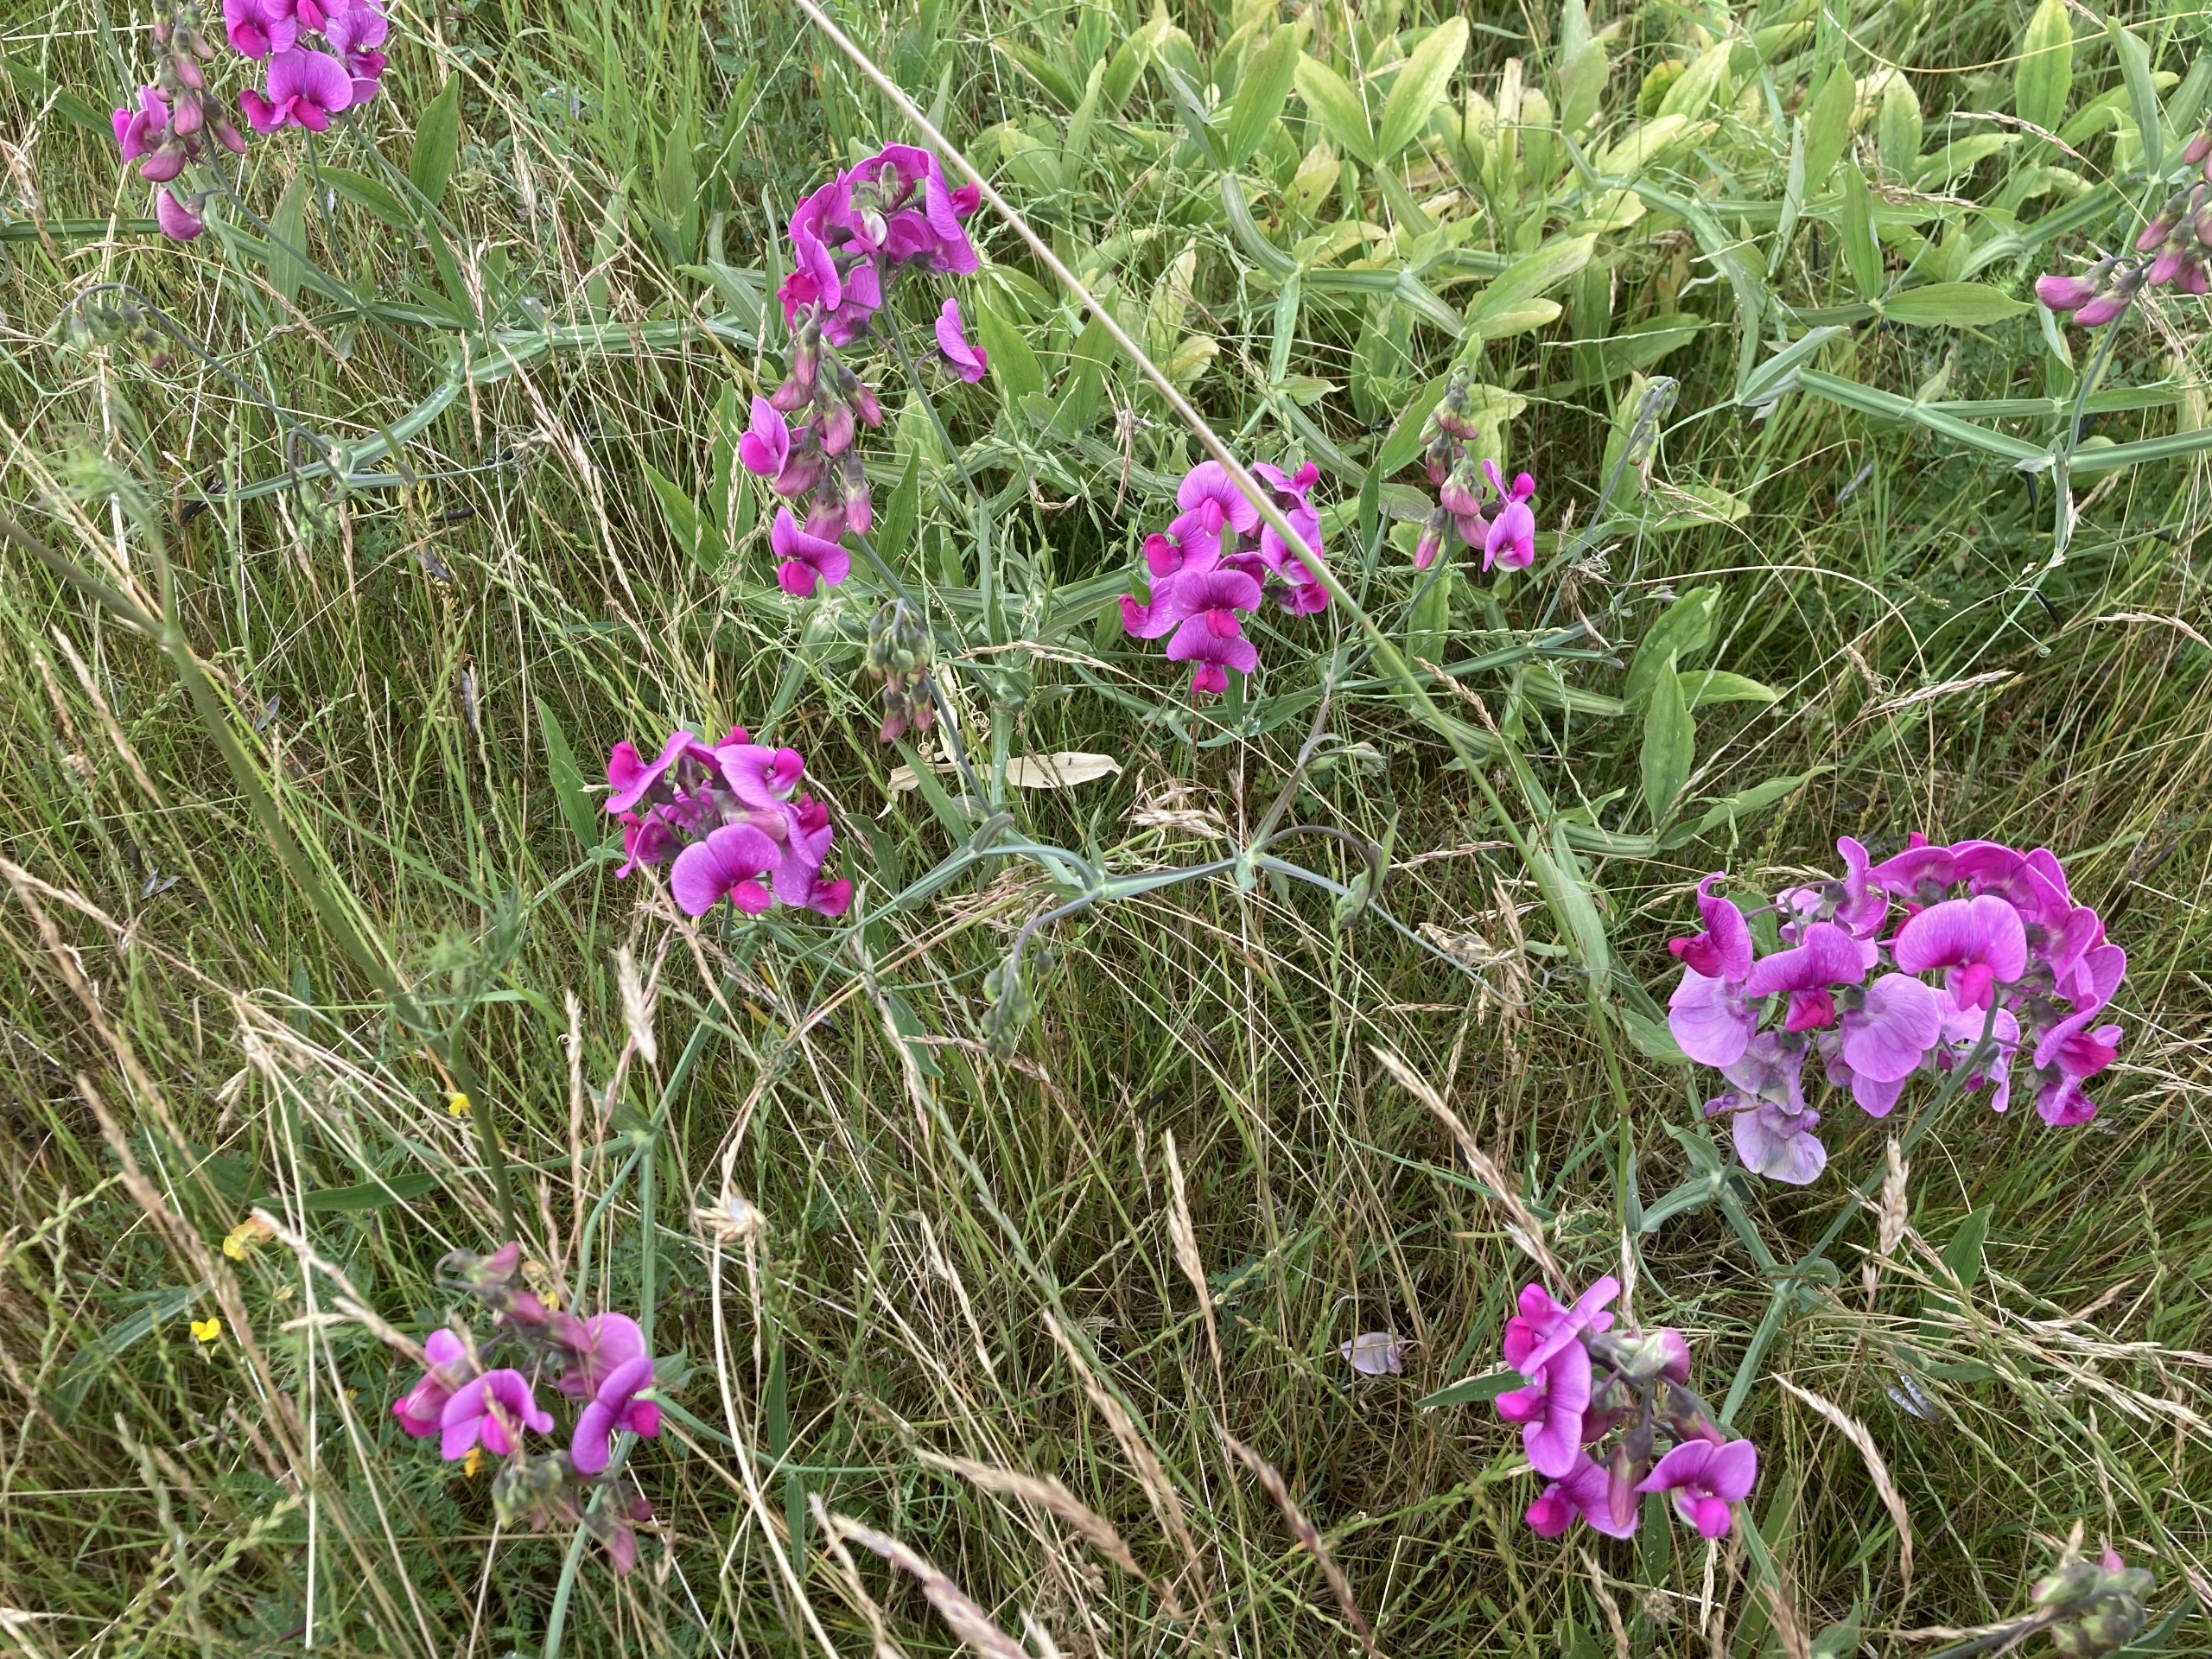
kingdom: Plantae
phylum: Tracheophyta
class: Magnoliopsida
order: Fabales
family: Fabaceae
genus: Lathyrus
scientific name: Lathyrus latifolius
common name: Flerårig ærteblomst
